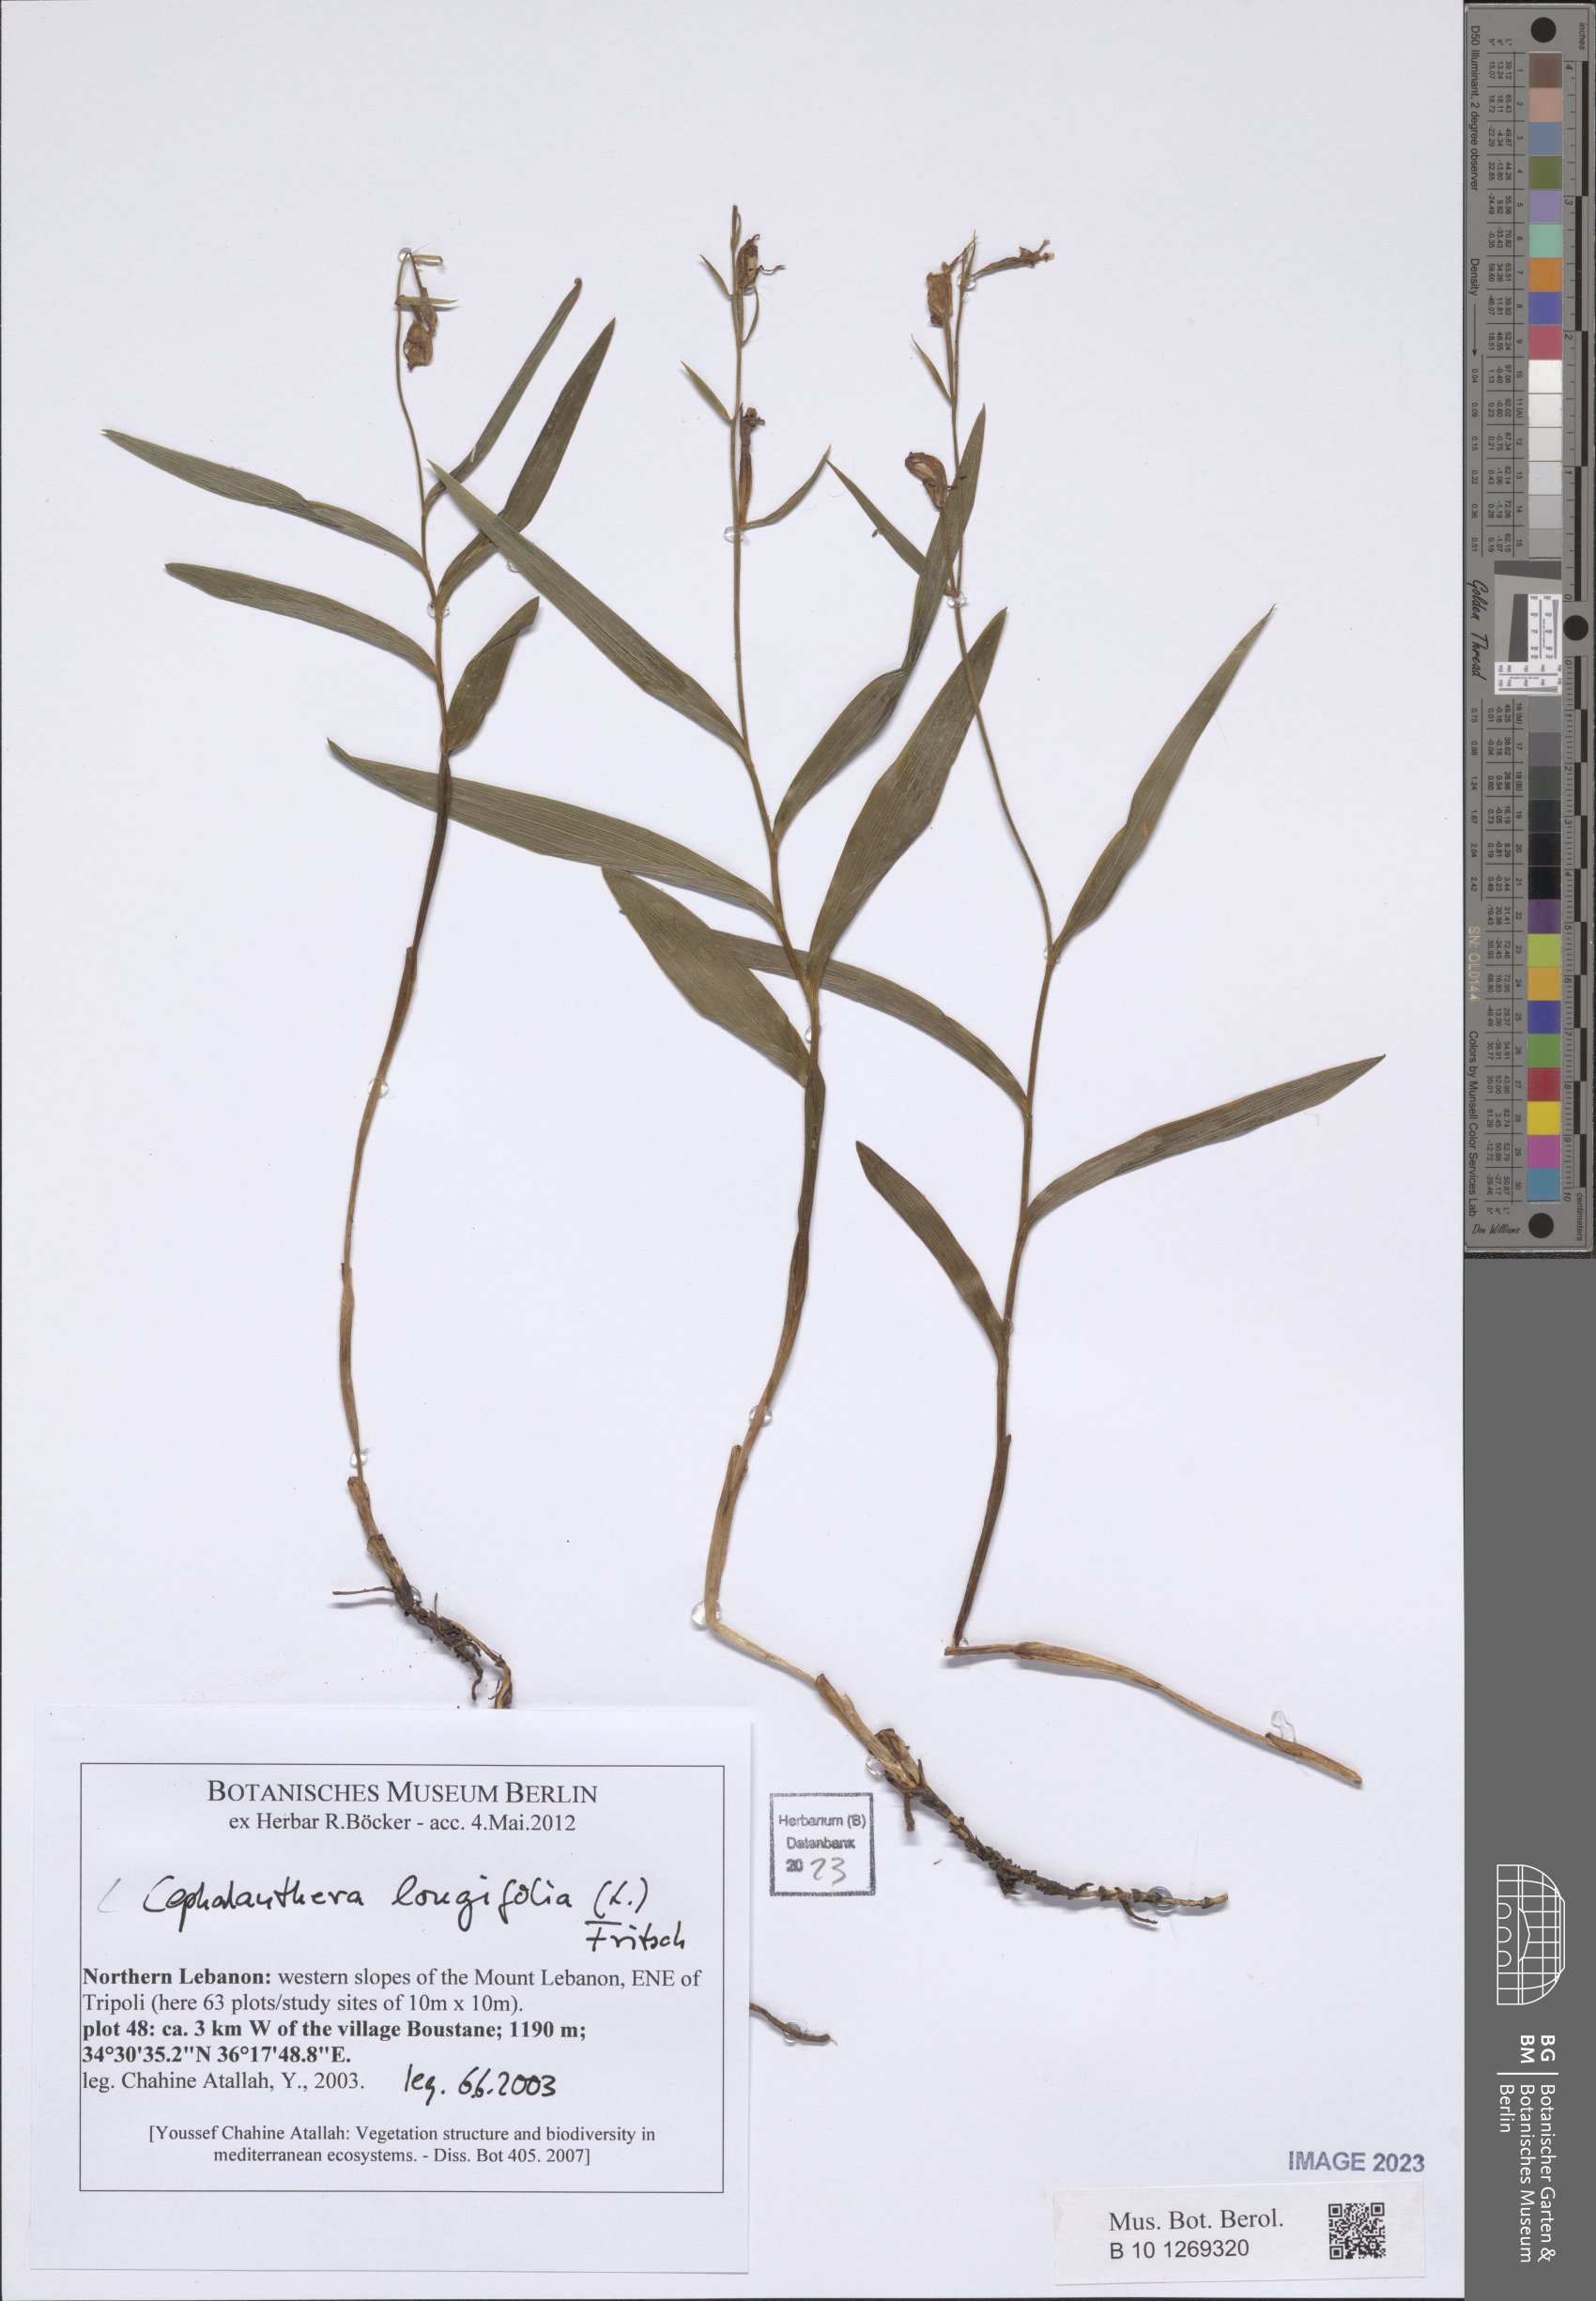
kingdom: Plantae
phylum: Tracheophyta
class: Liliopsida
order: Asparagales
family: Orchidaceae
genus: Cephalanthera
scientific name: Cephalanthera longifolia
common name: Narrow-leaved helleborine
